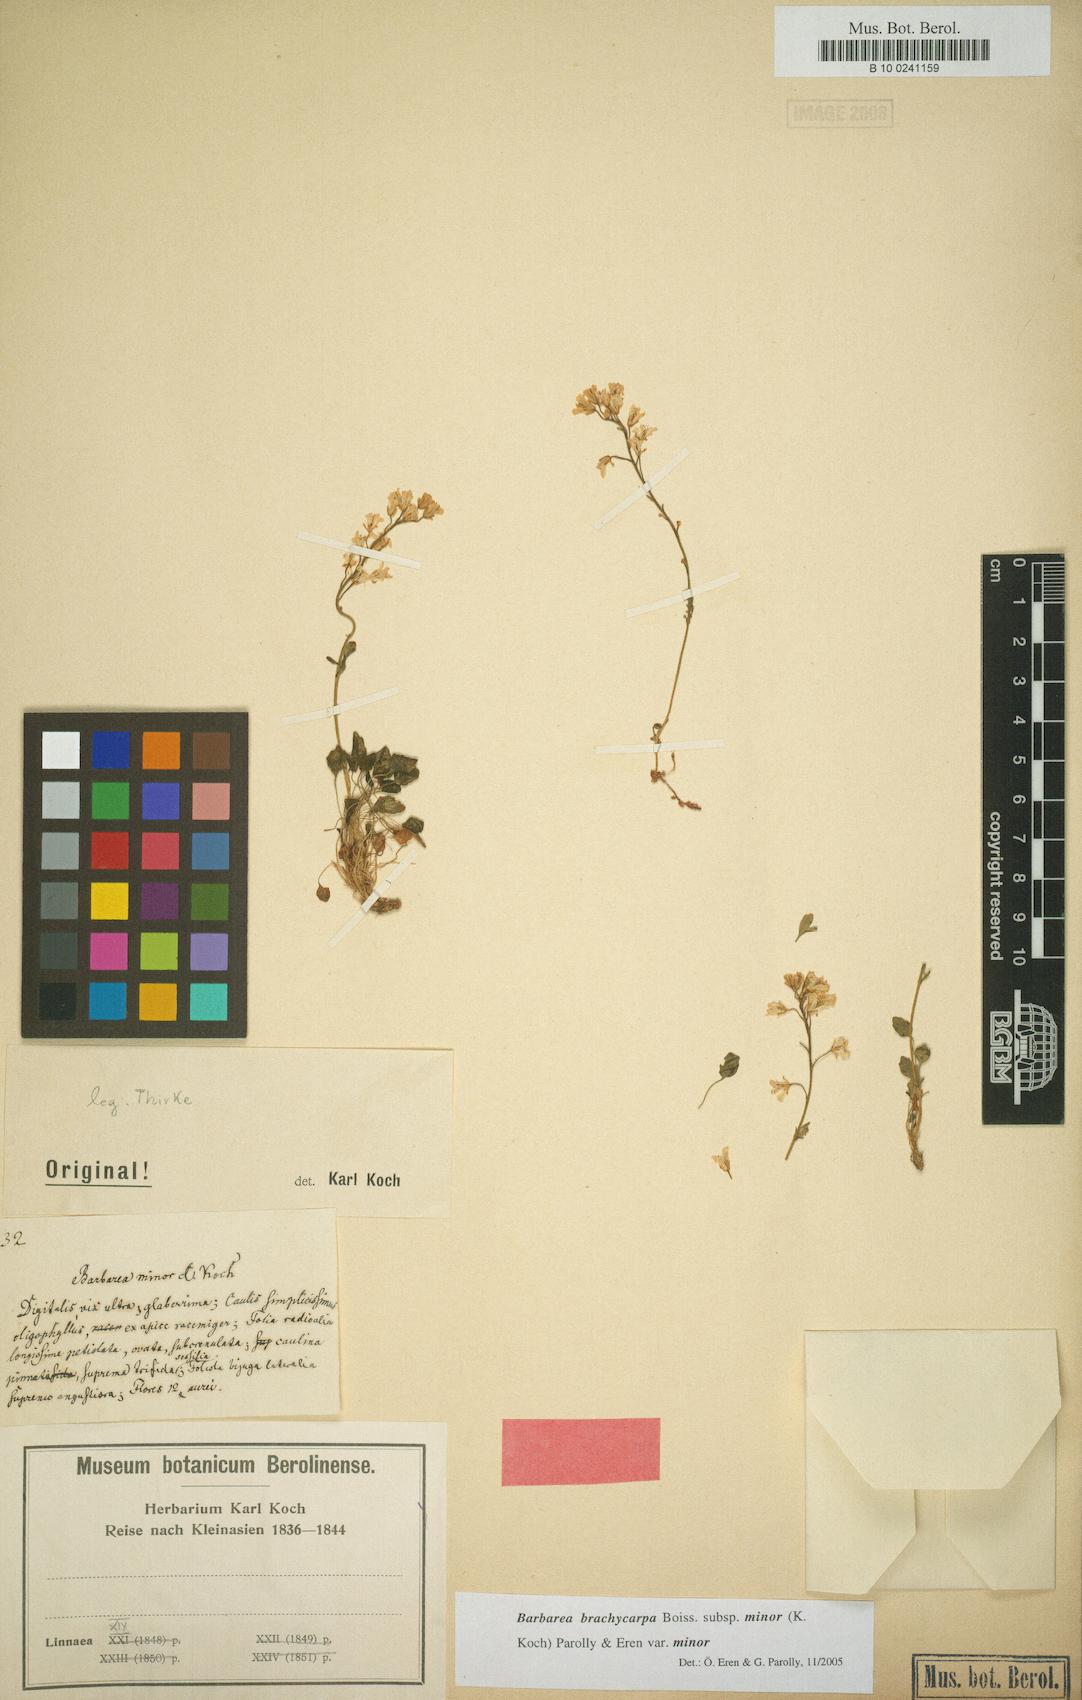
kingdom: Plantae
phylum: Tracheophyta
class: Magnoliopsida
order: Brassicales
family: Brassicaceae
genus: Barbarea
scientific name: Barbarea brachycarpa
